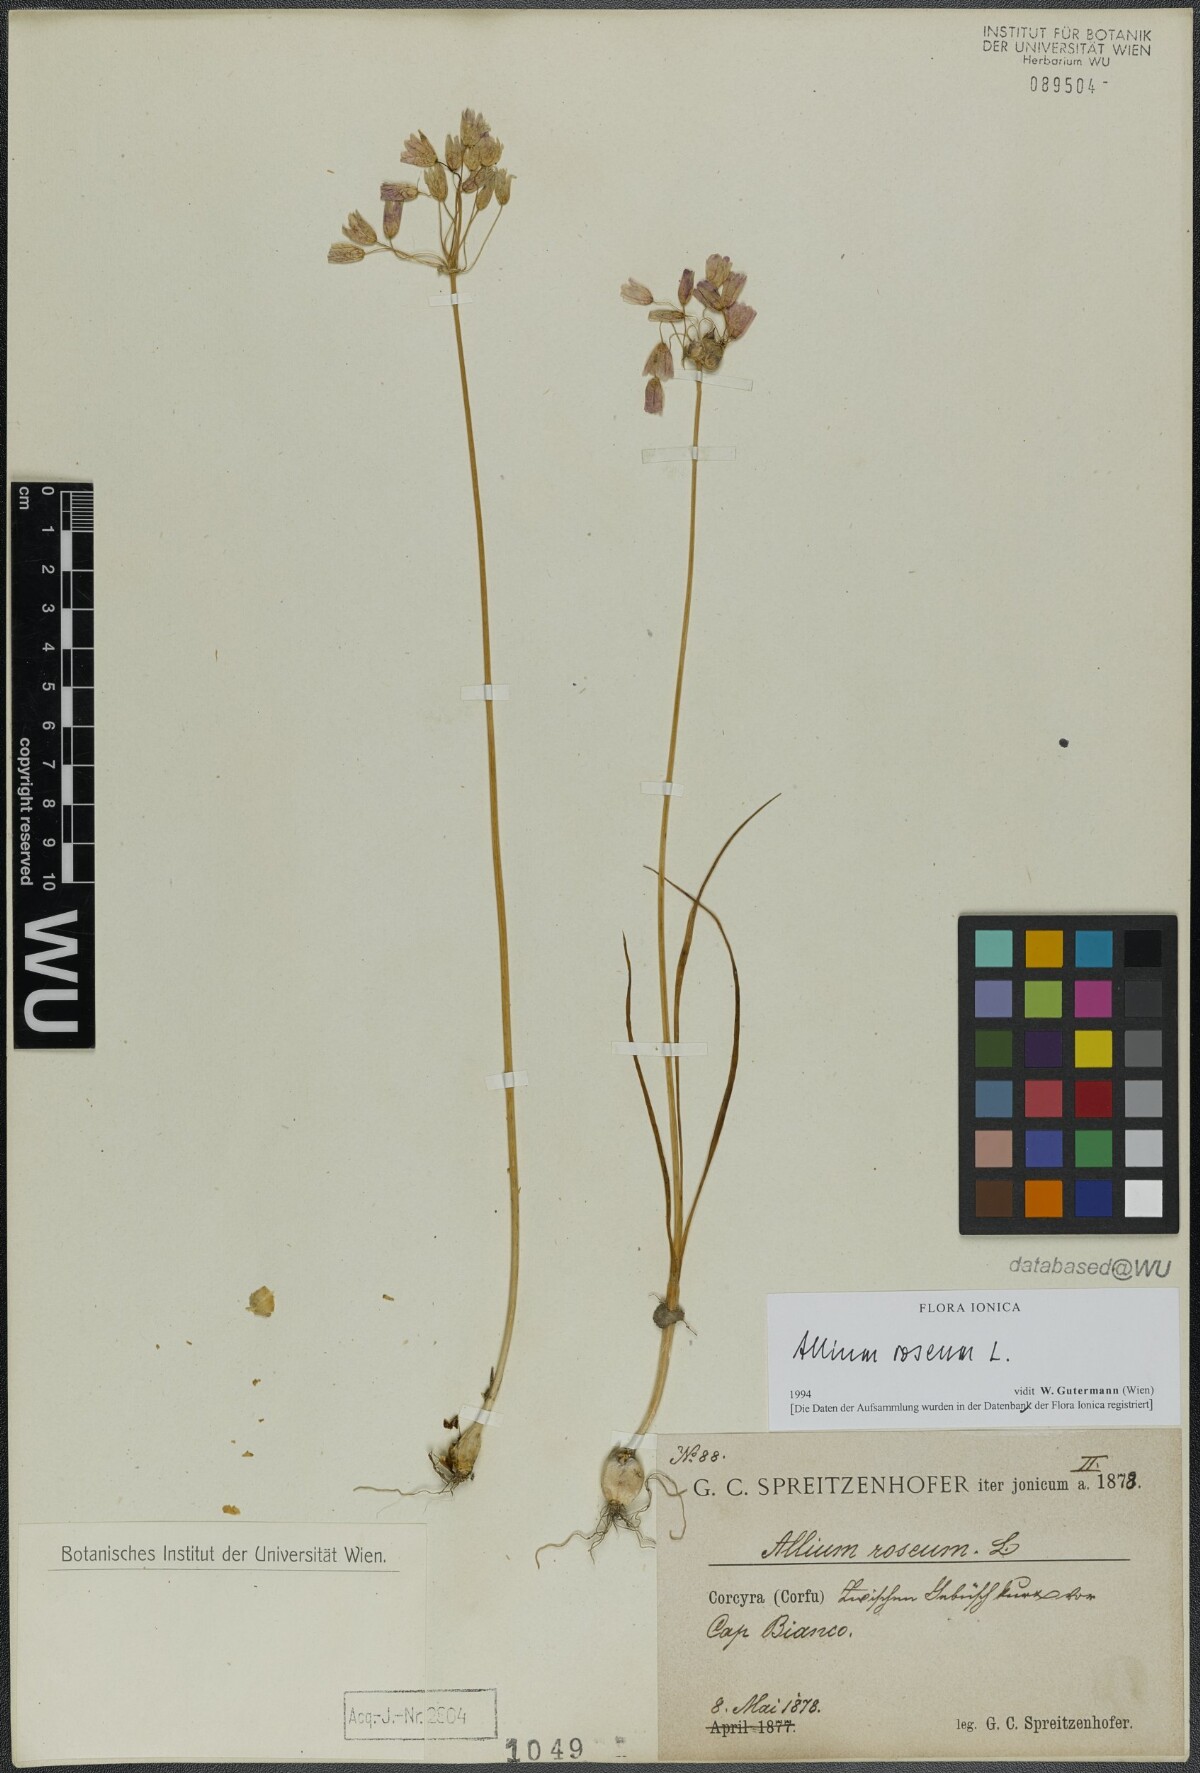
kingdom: Plantae
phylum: Tracheophyta
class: Liliopsida
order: Asparagales
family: Amaryllidaceae
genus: Allium
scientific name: Allium roseum
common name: Rosy garlic
